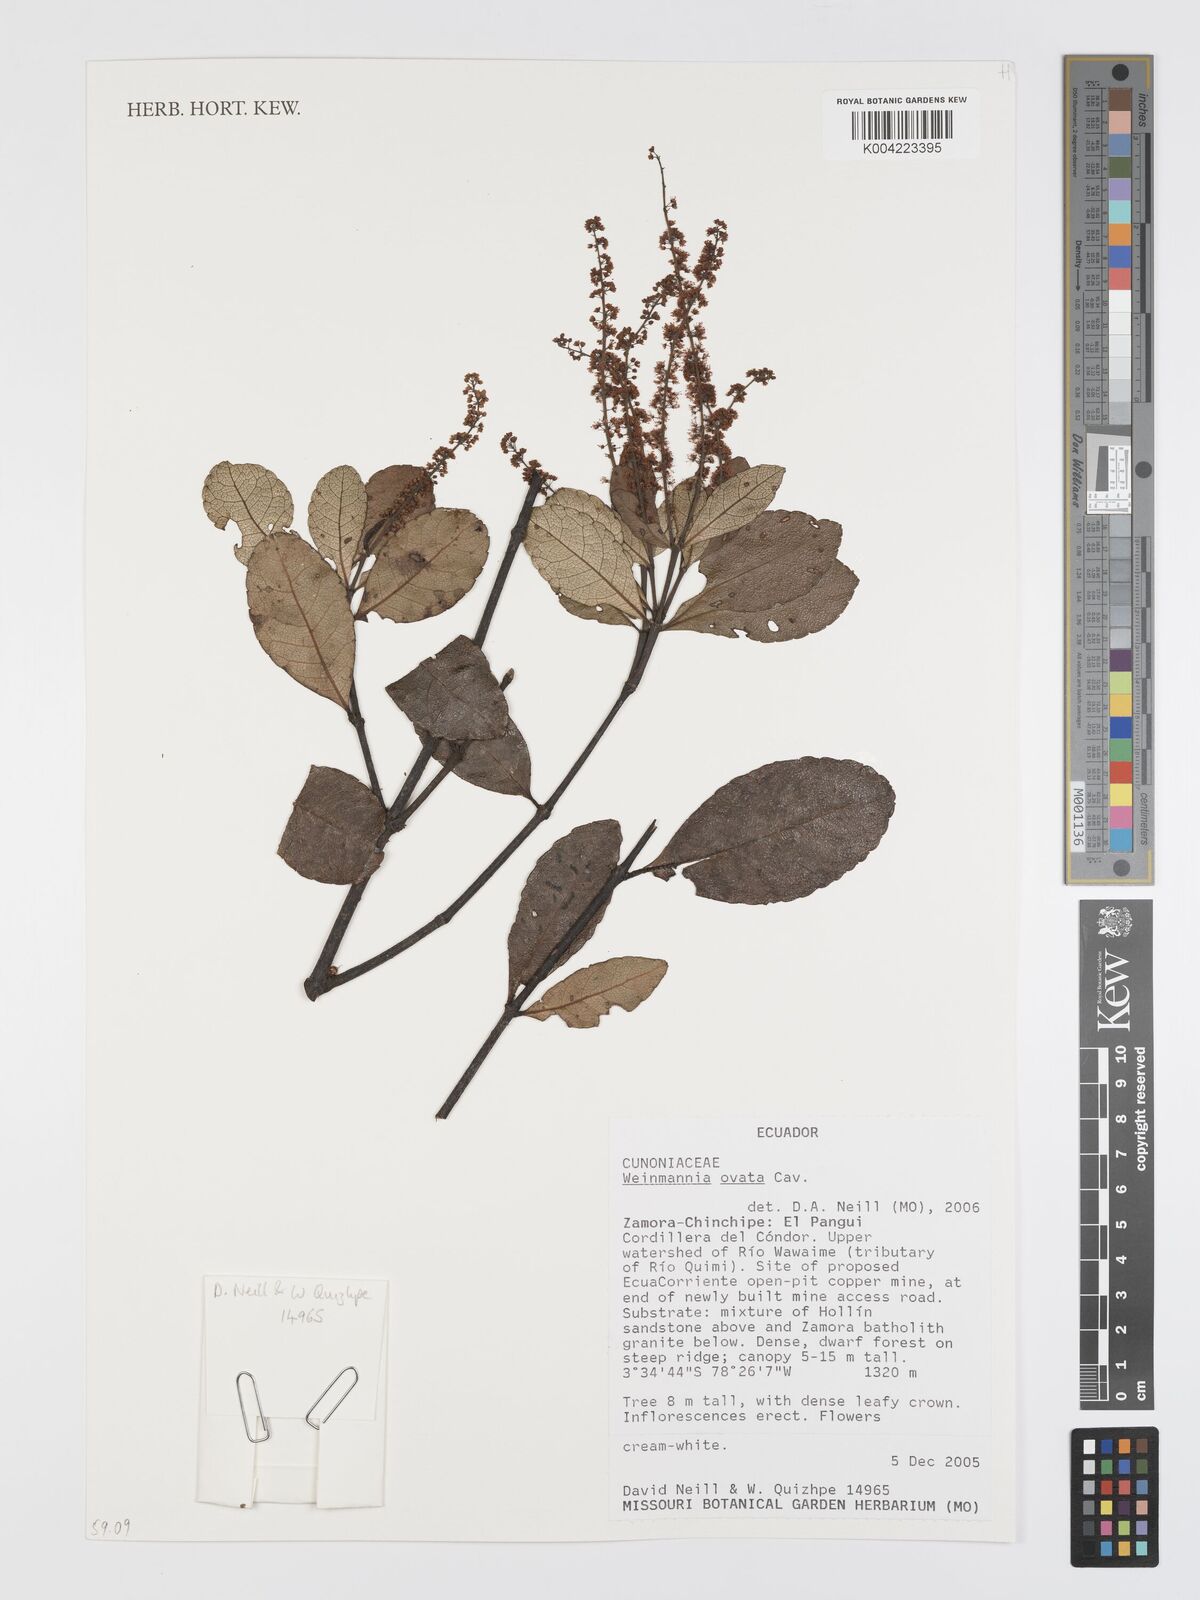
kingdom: Plantae
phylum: Tracheophyta
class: Magnoliopsida
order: Oxalidales
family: Cunoniaceae
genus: Weinmannia
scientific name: Weinmannia ovata
